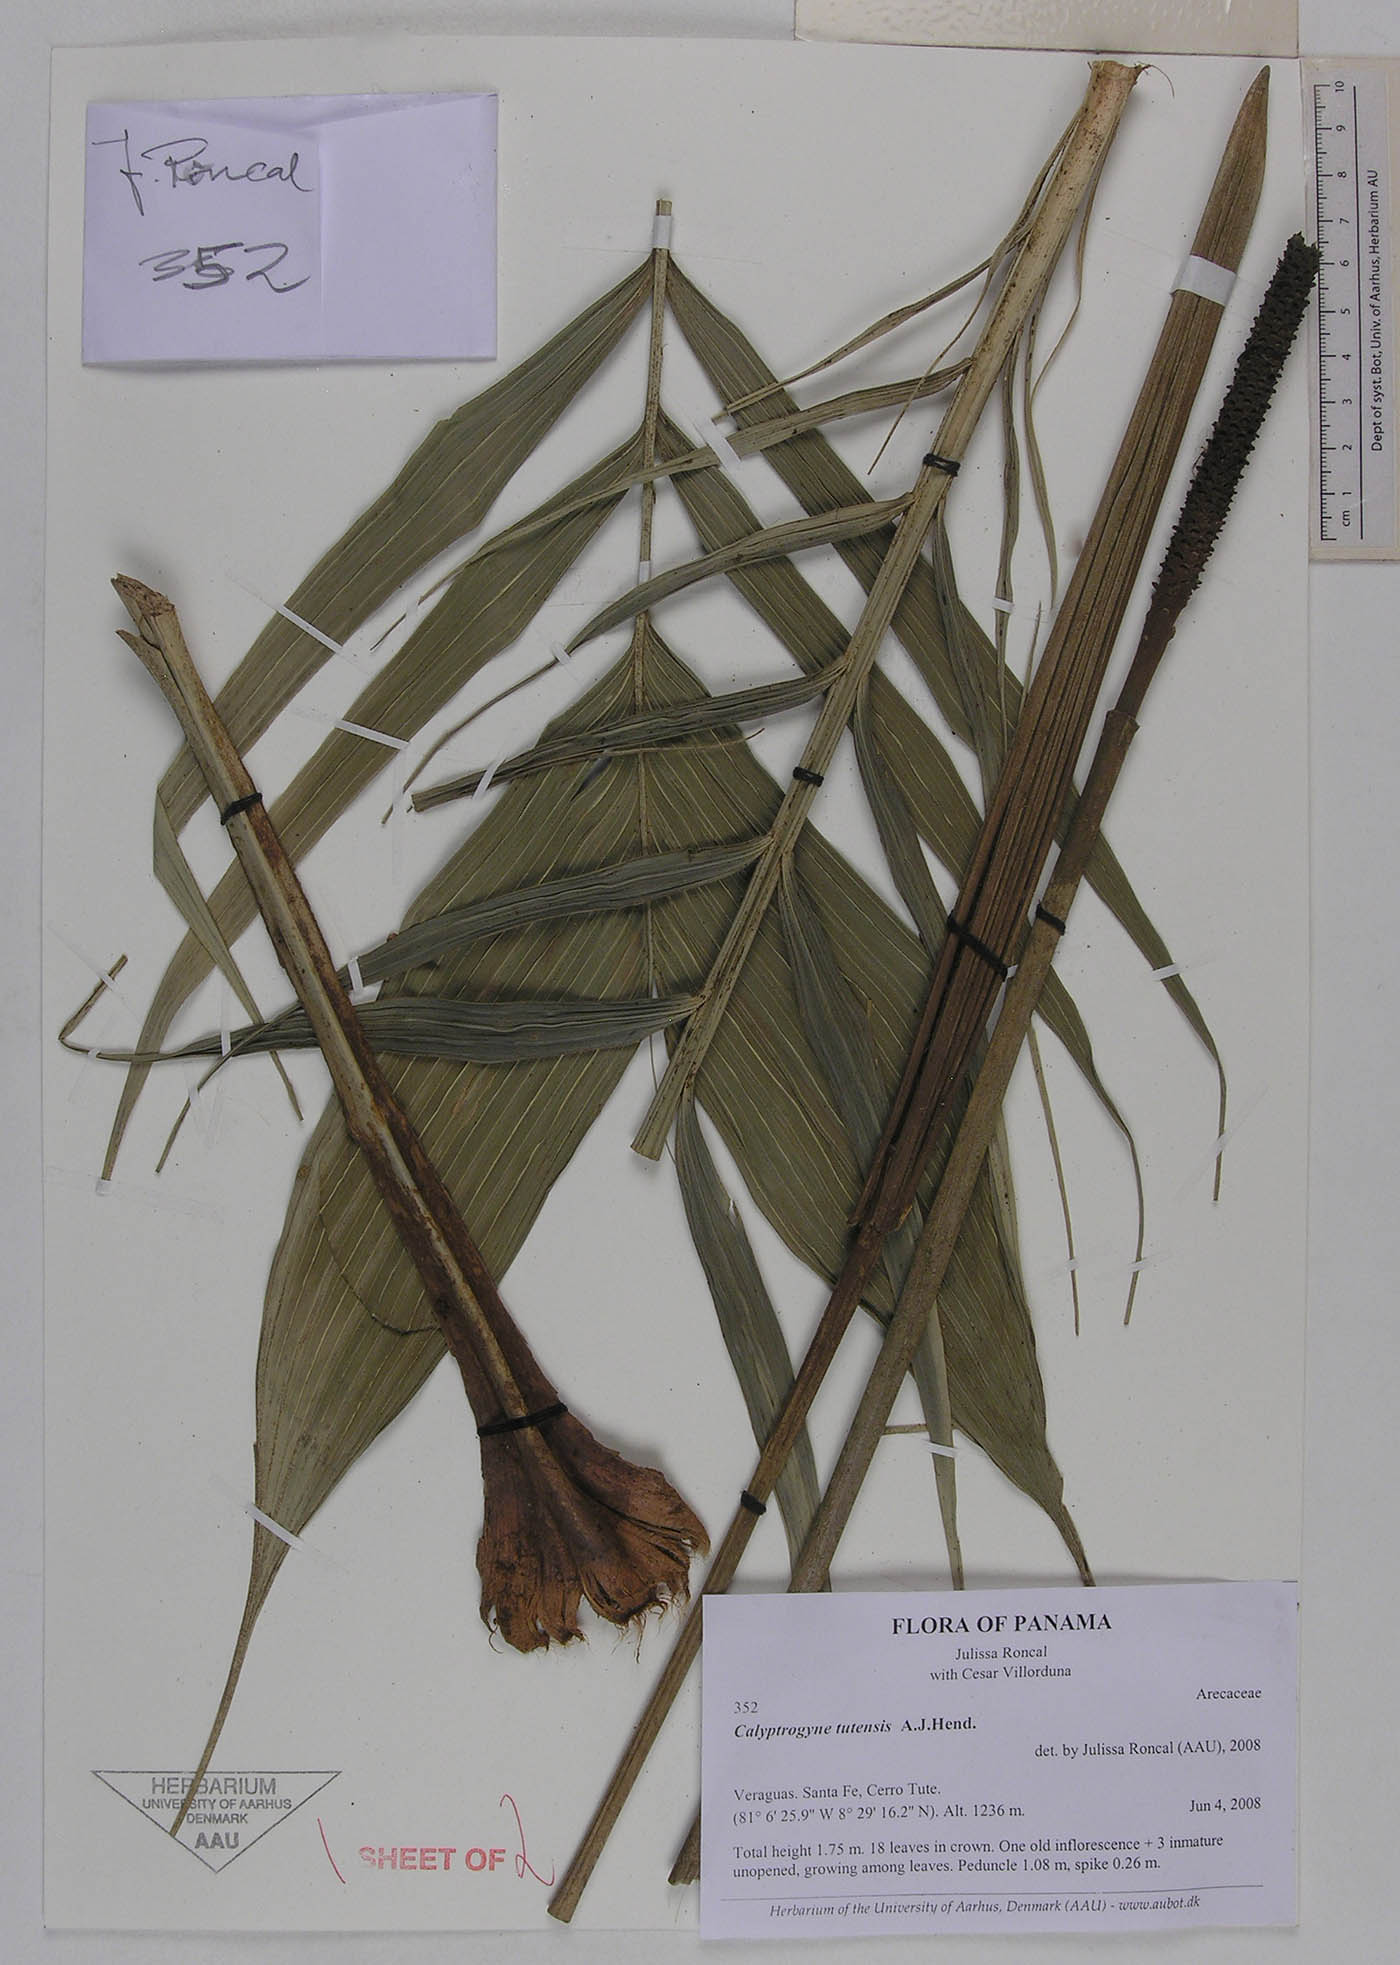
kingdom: Plantae
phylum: Tracheophyta
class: Liliopsida
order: Arecales
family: Arecaceae
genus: Calyptrogyne
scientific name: Calyptrogyne tutensis
